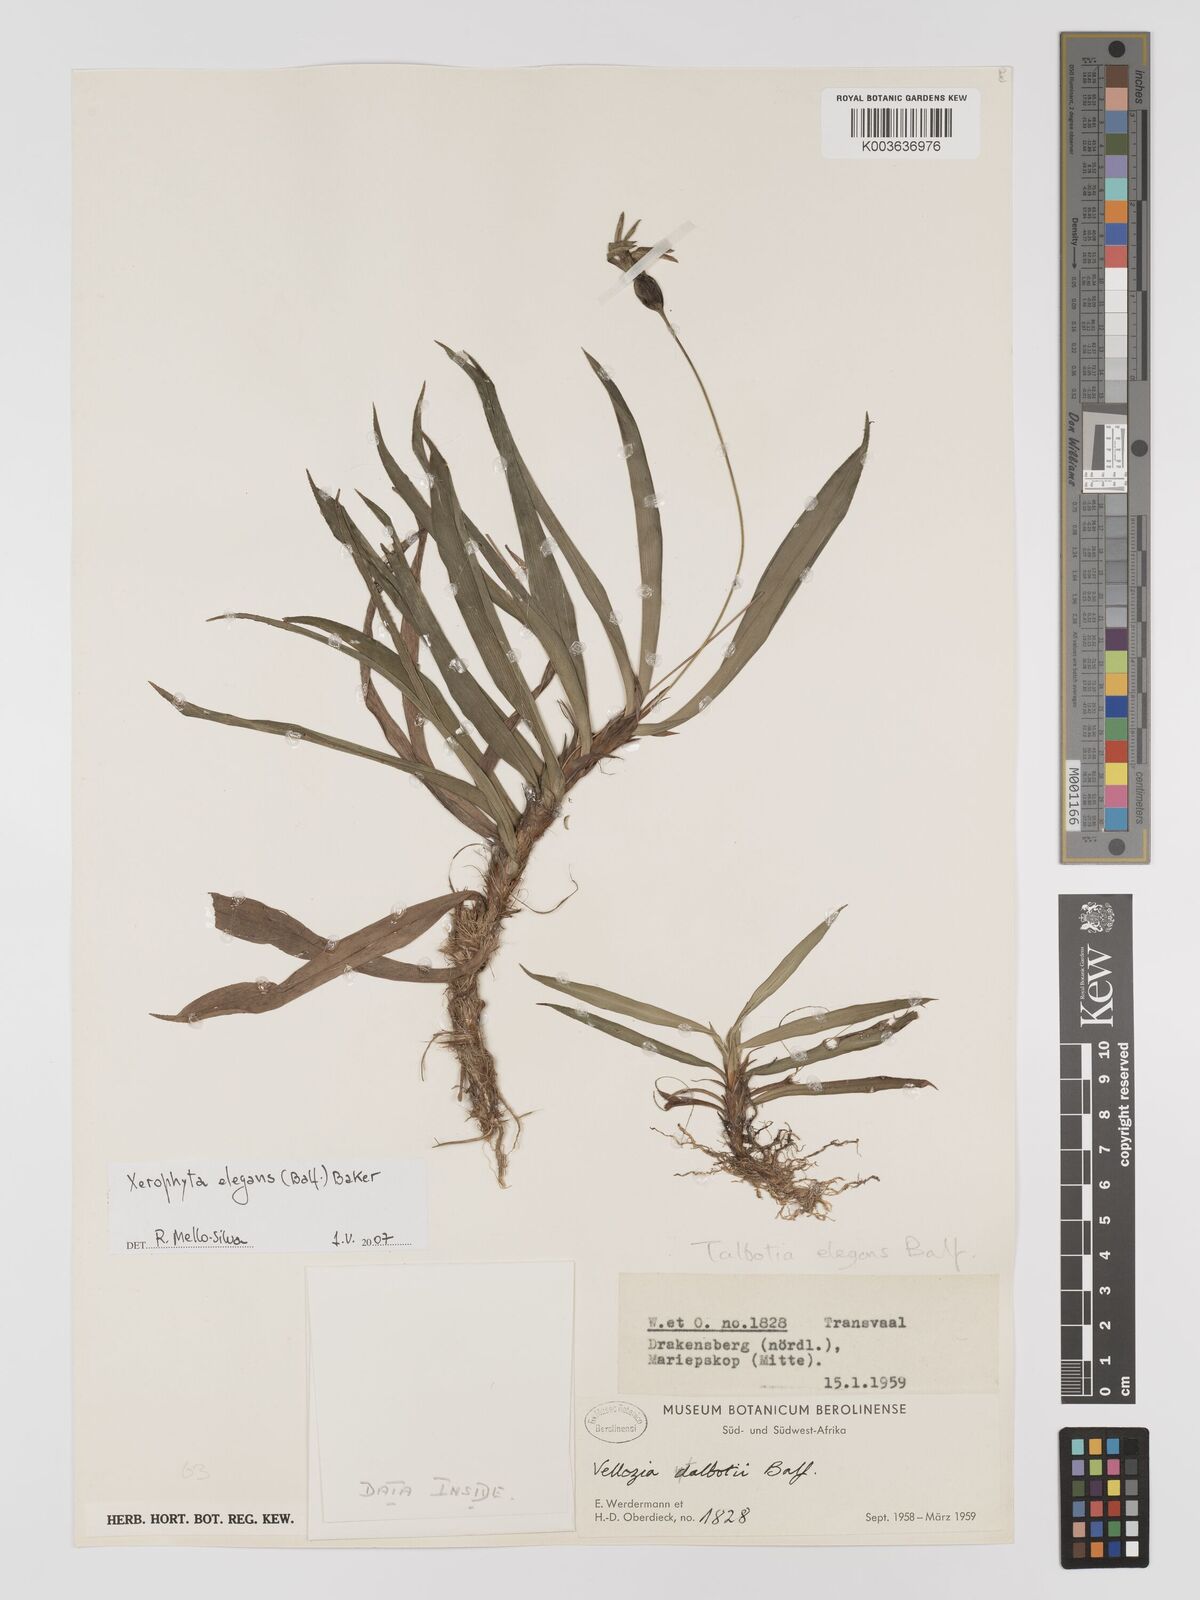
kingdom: Plantae
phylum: Tracheophyta
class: Liliopsida
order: Pandanales
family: Velloziaceae
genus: Xerophyta
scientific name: Xerophyta elegans
